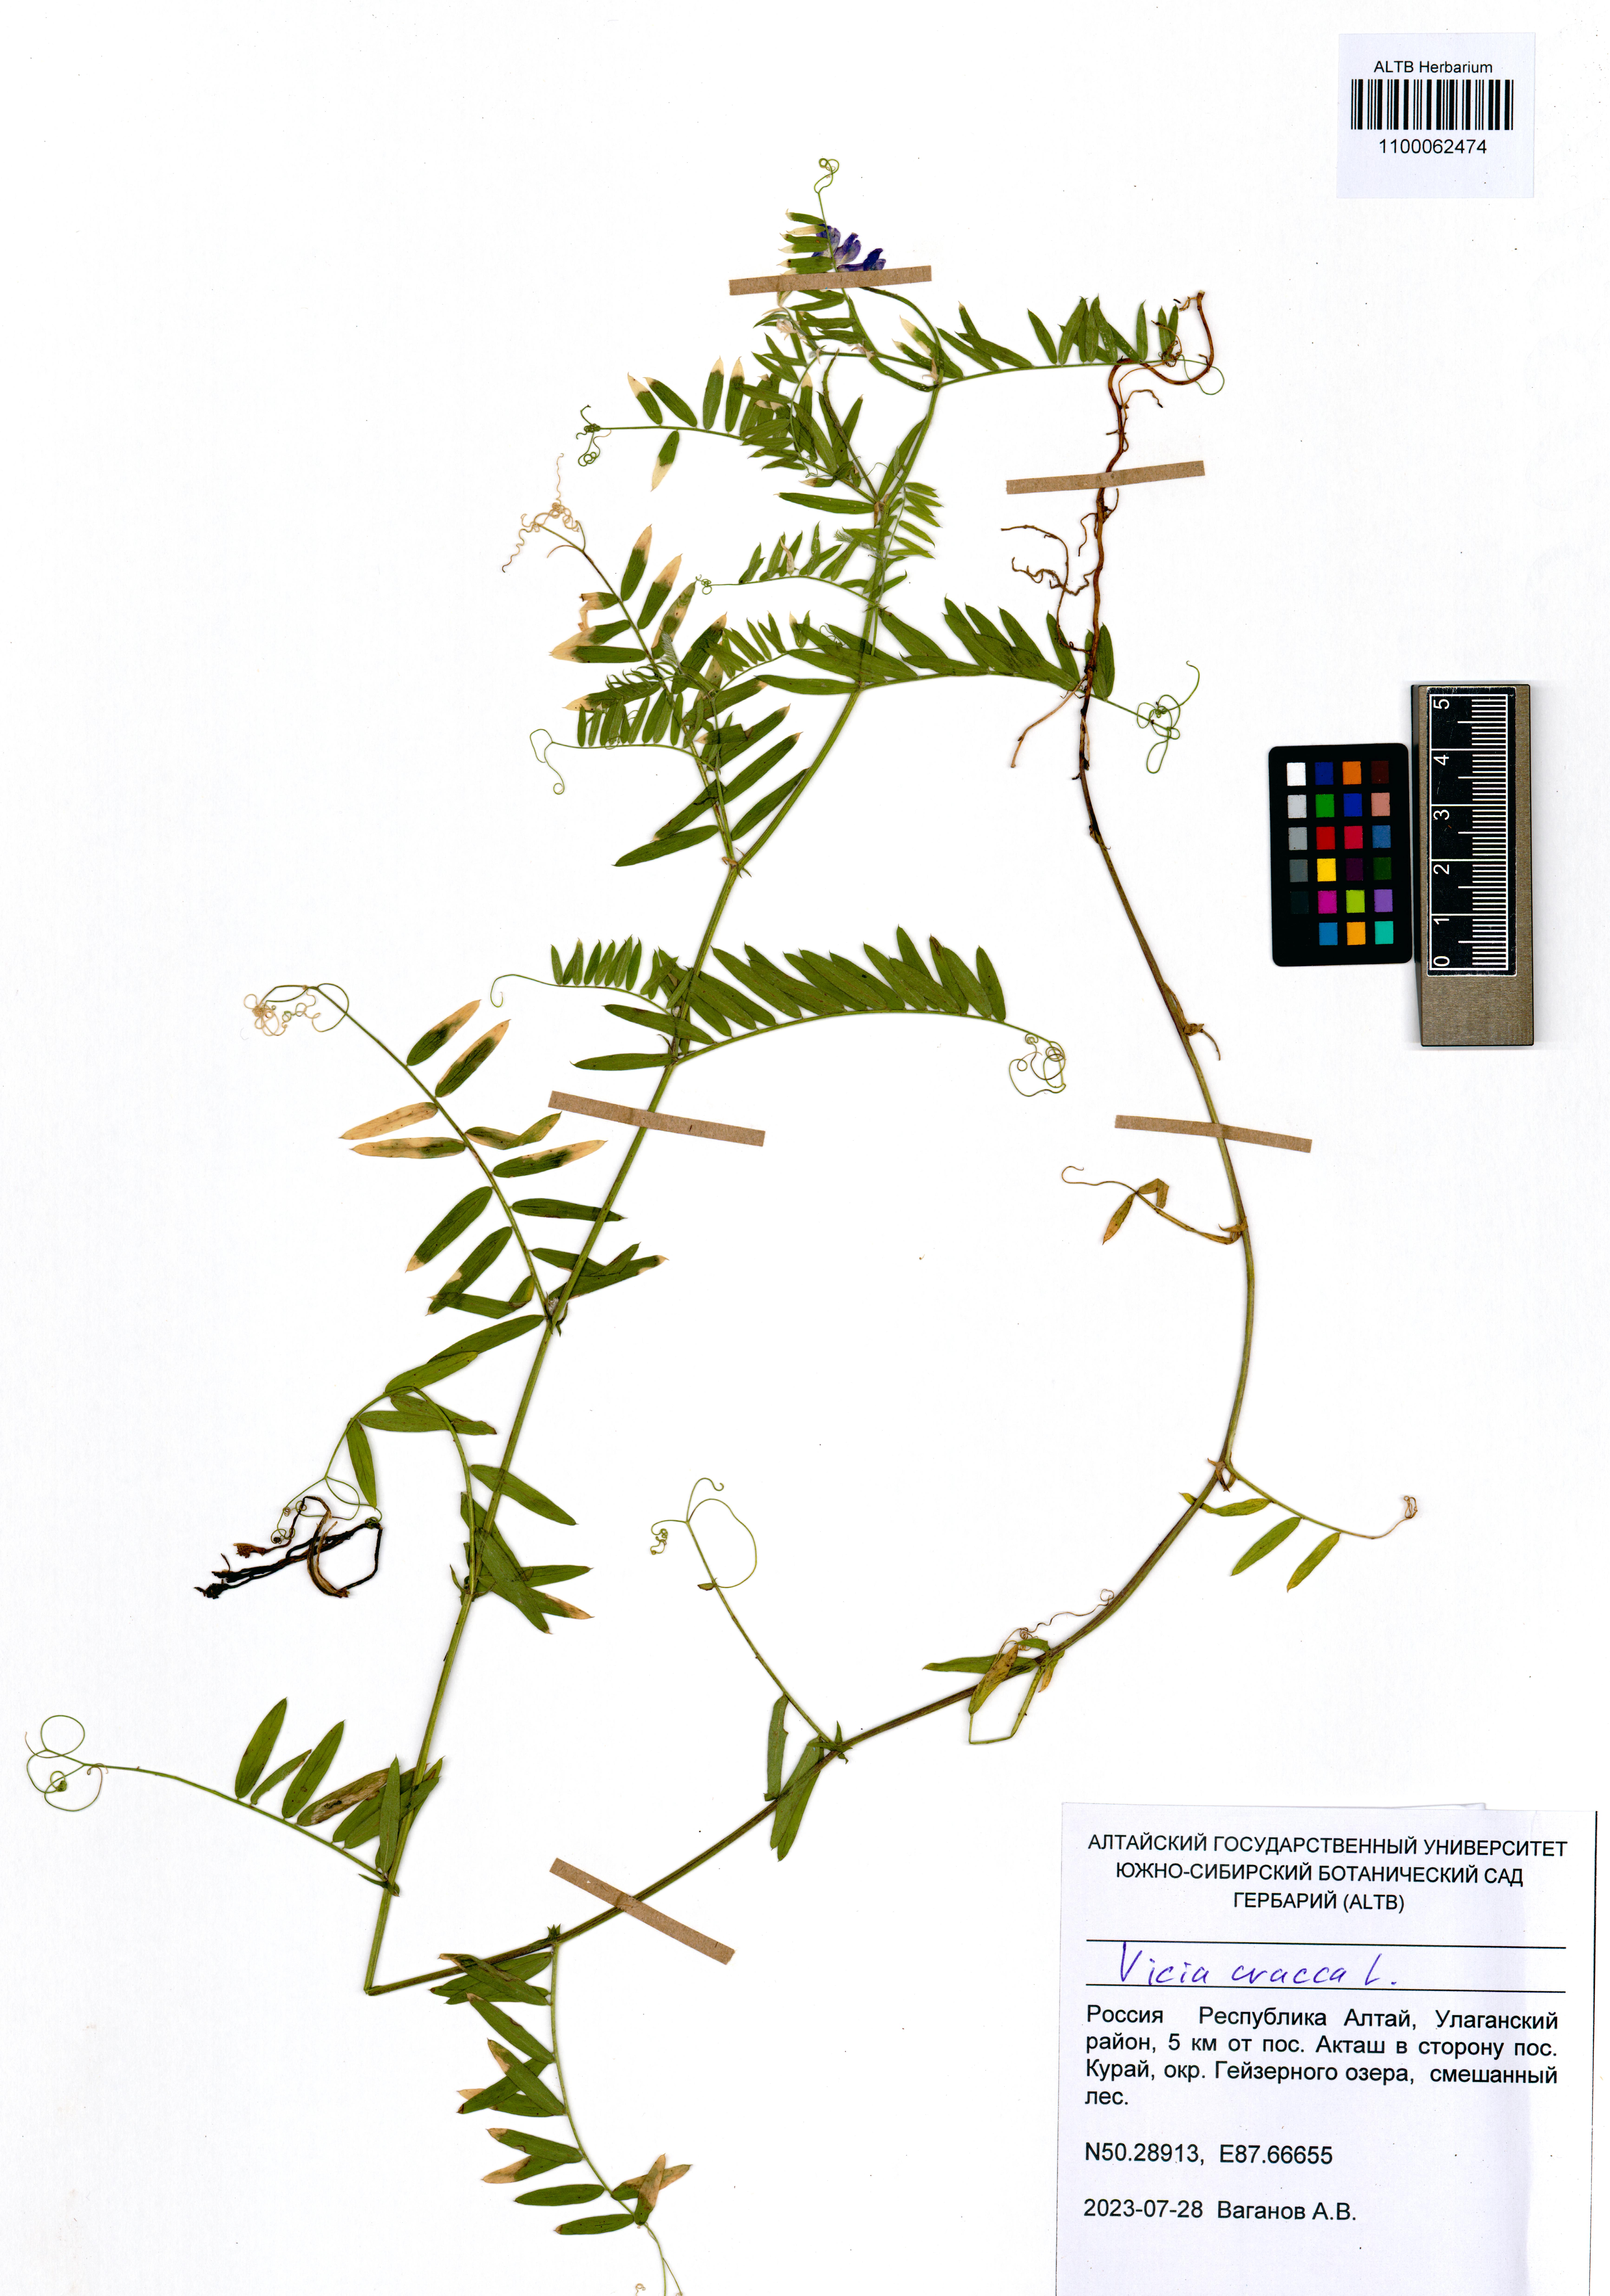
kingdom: Plantae
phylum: Tracheophyta
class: Magnoliopsida
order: Fabales
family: Fabaceae
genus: Vicia
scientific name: Vicia cracca
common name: Bird vetch
